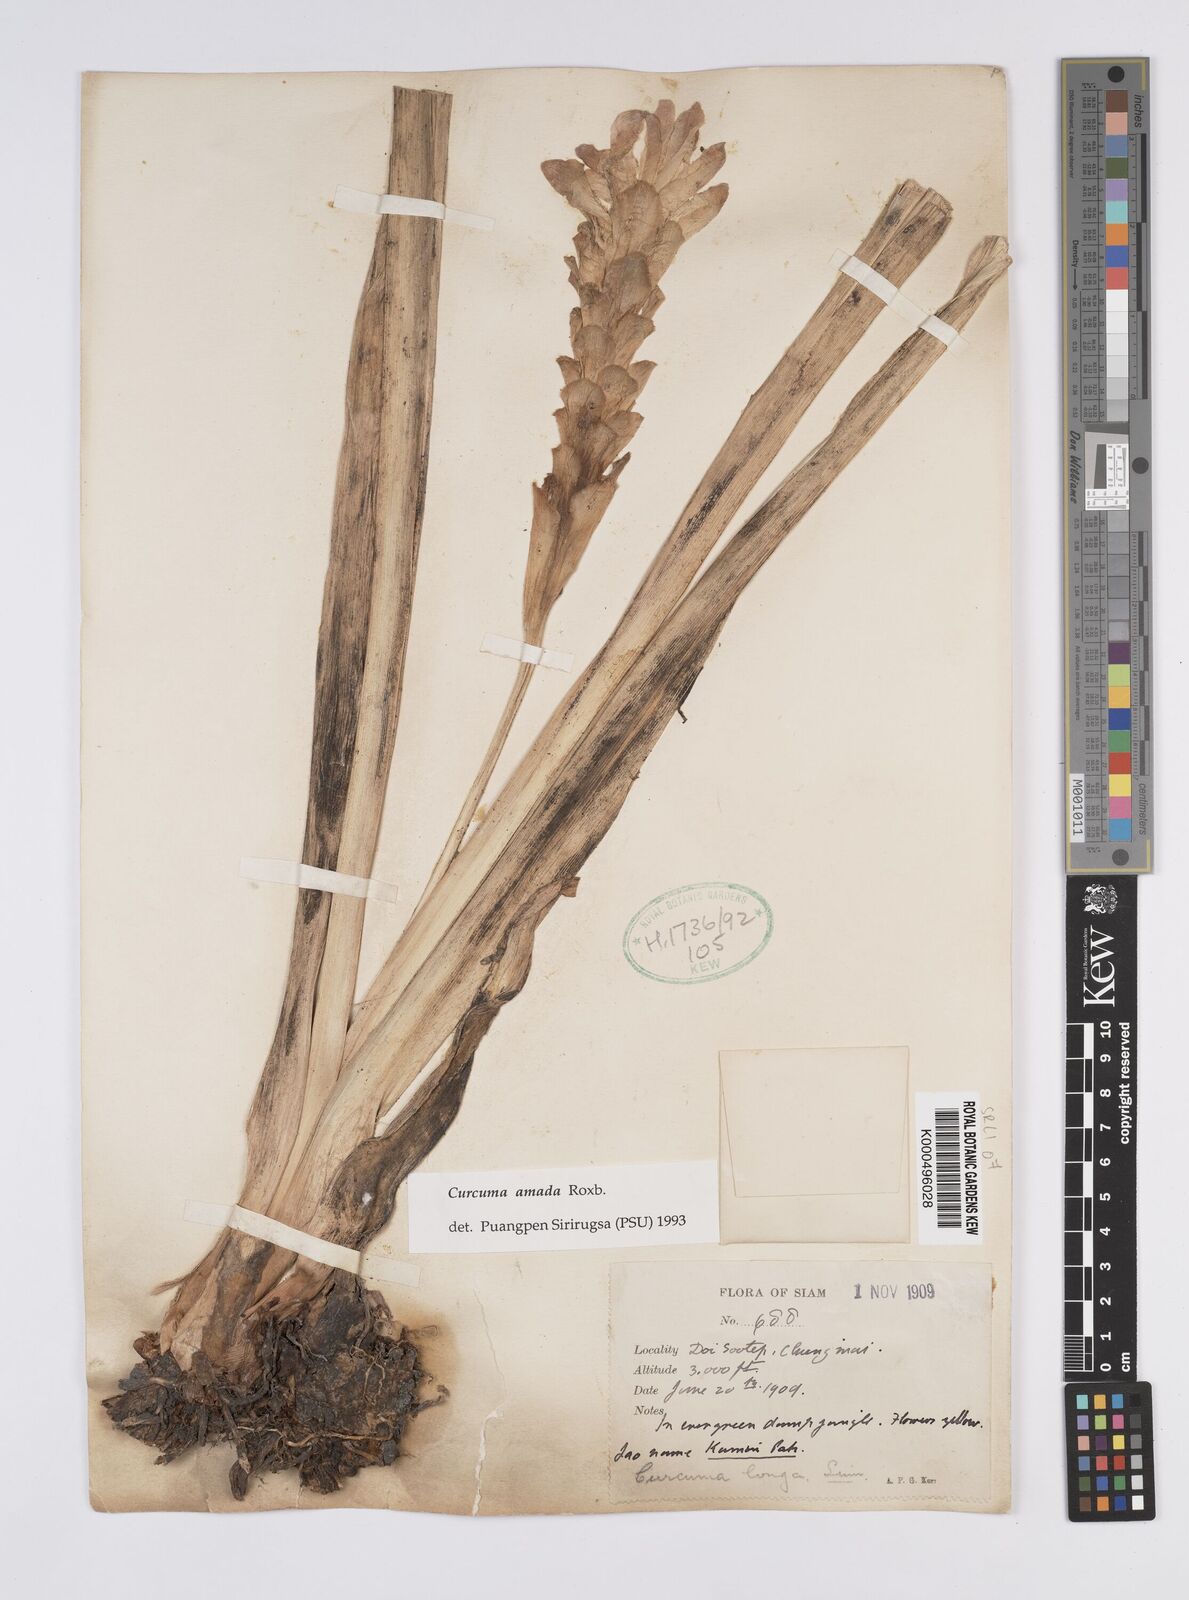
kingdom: Plantae
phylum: Tracheophyta
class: Liliopsida
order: Zingiberales
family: Zingiberaceae
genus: Curcuma
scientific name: Curcuma amada
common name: Mango-ginger
